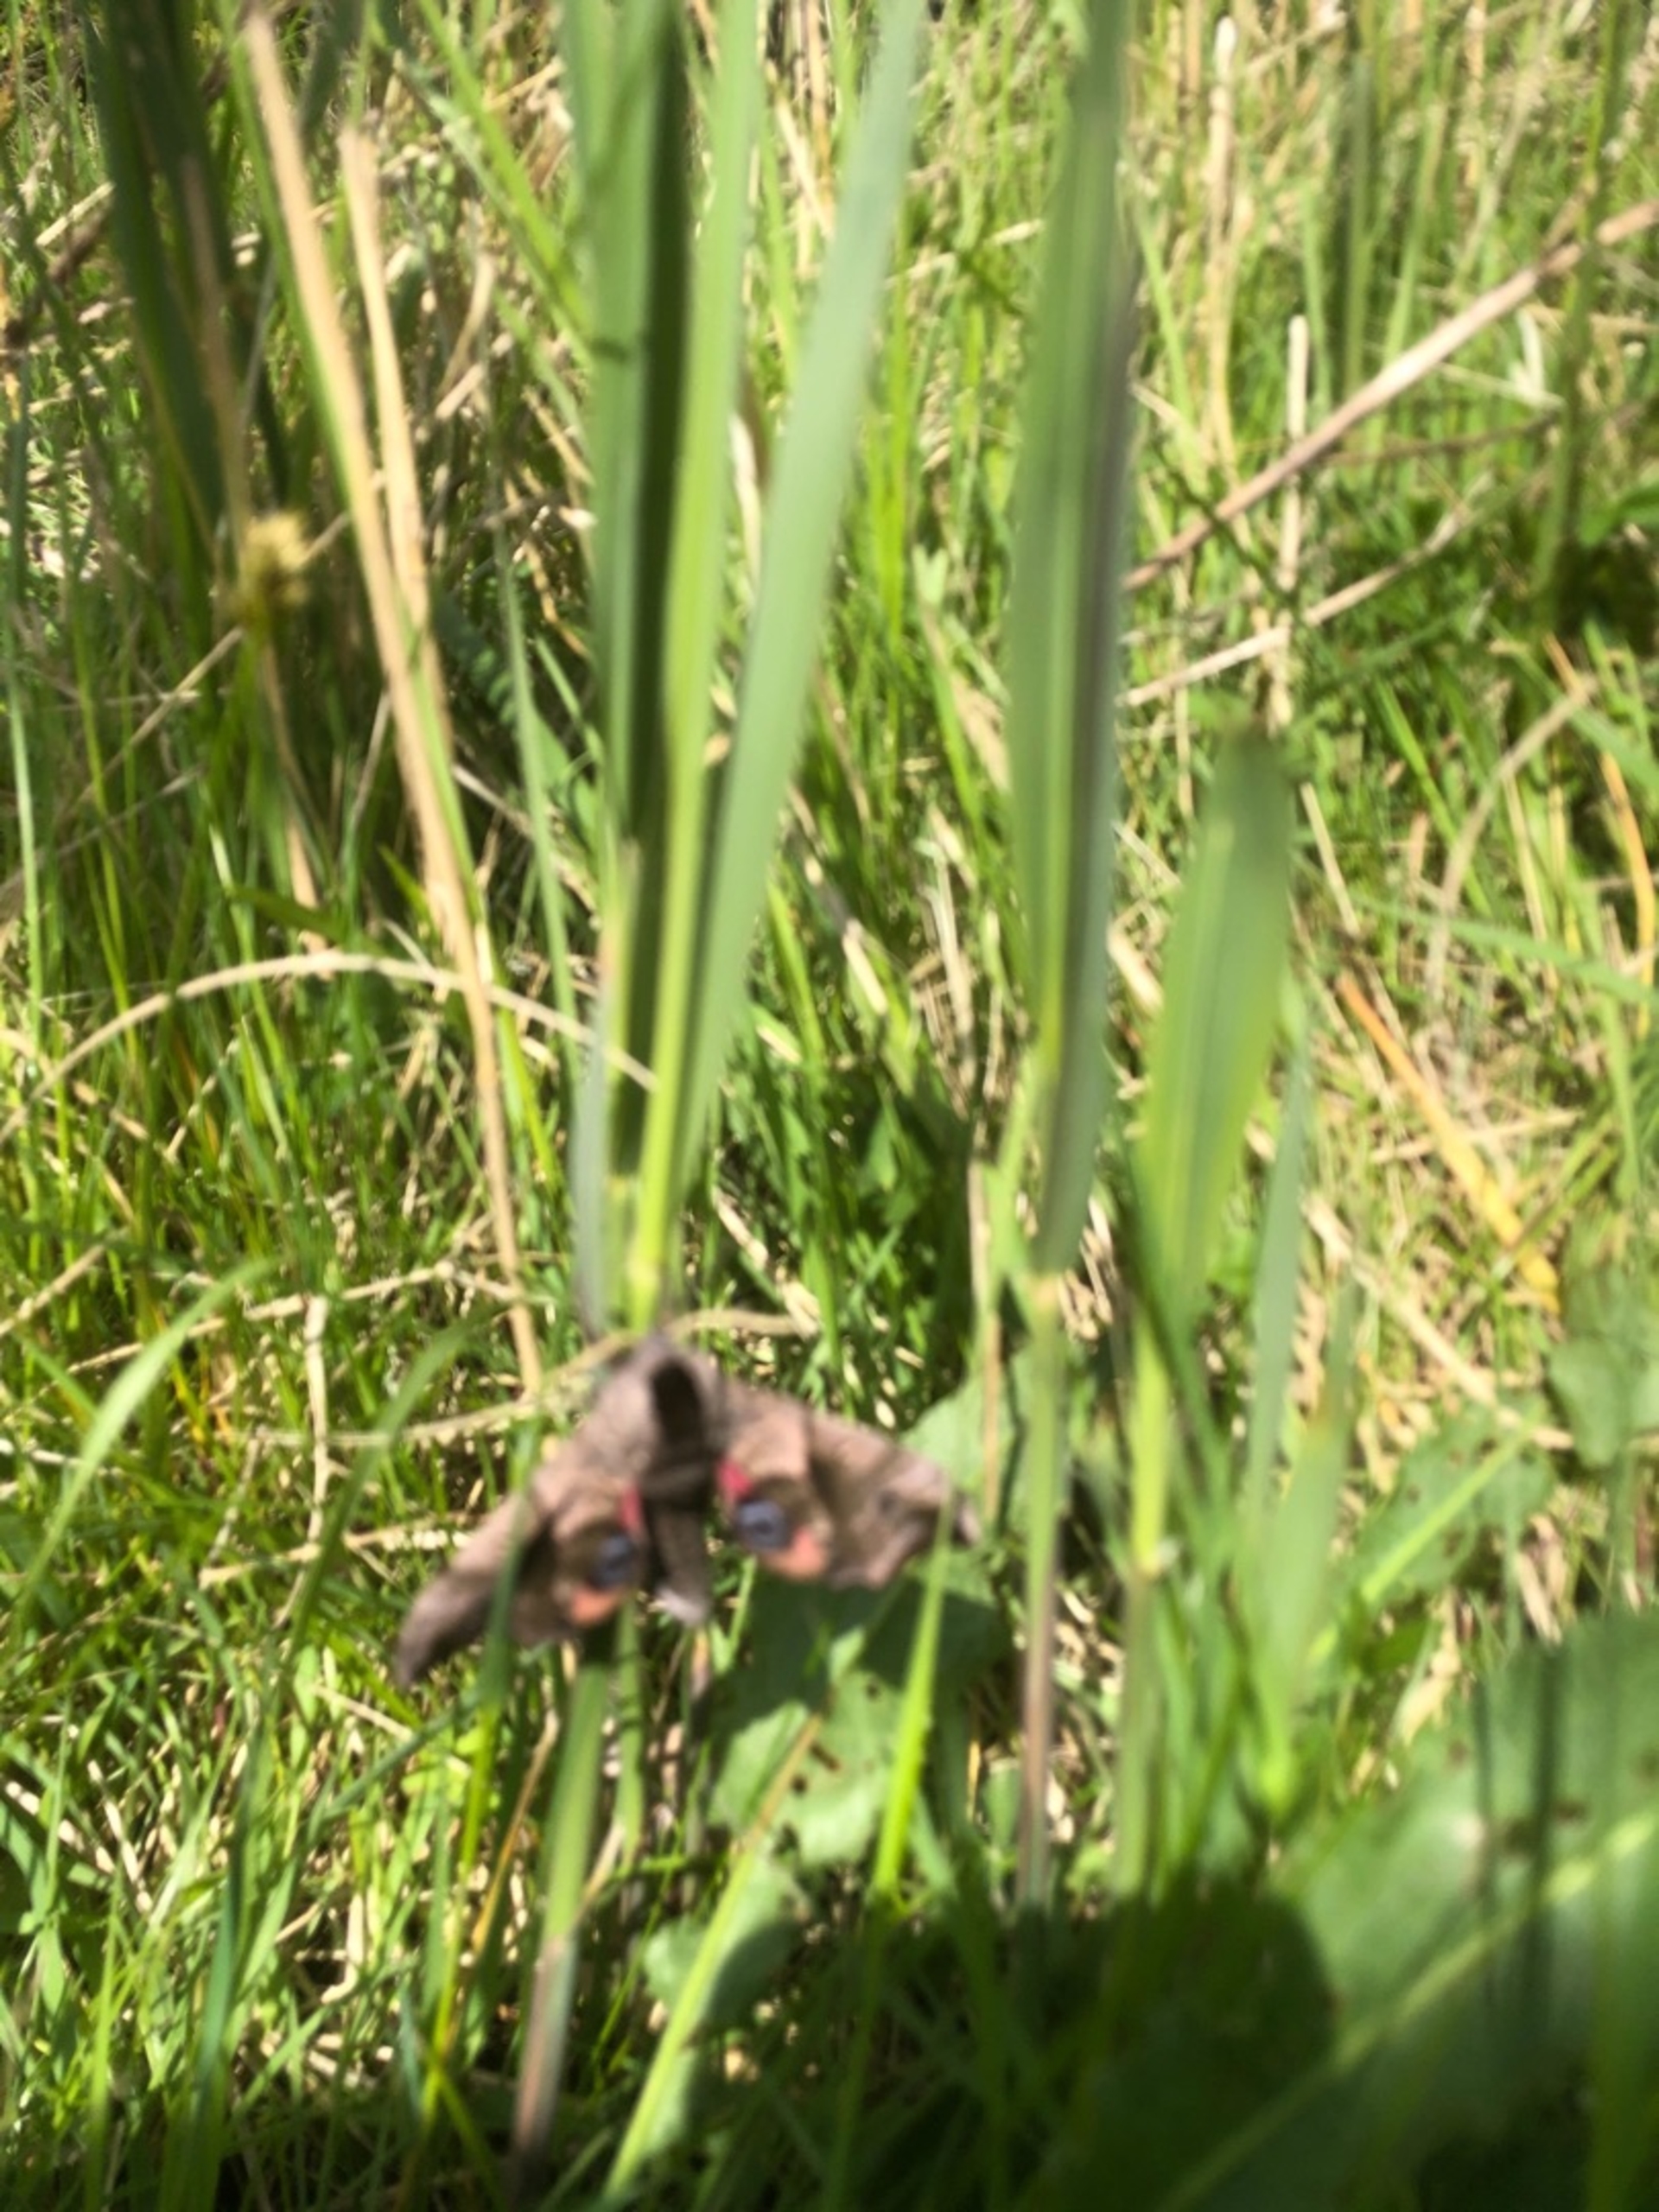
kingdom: Animalia
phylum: Arthropoda
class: Insecta
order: Lepidoptera
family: Sphingidae
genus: Smerinthus
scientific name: Smerinthus ocellata
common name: Aftenpåfugleøje
